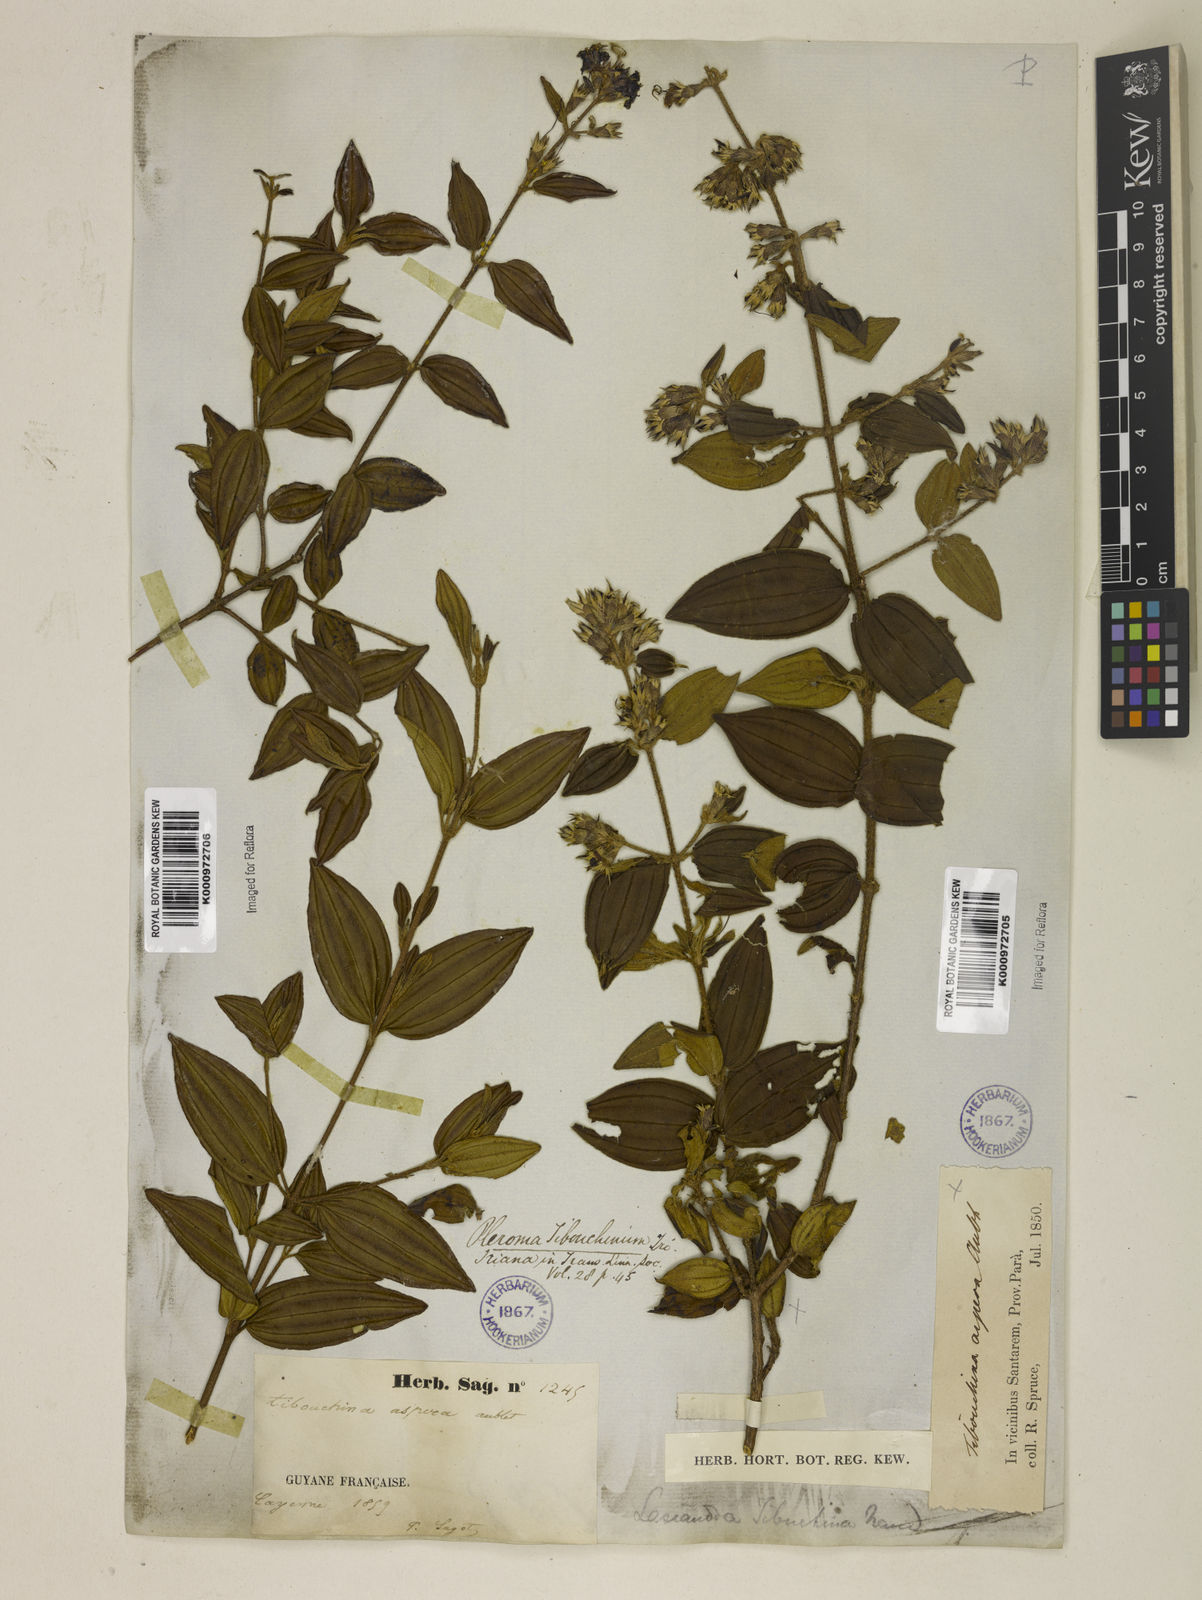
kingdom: Plantae
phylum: Tracheophyta
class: Magnoliopsida
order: Myrtales
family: Melastomataceae
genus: Tibouchina
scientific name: Tibouchina aspera
